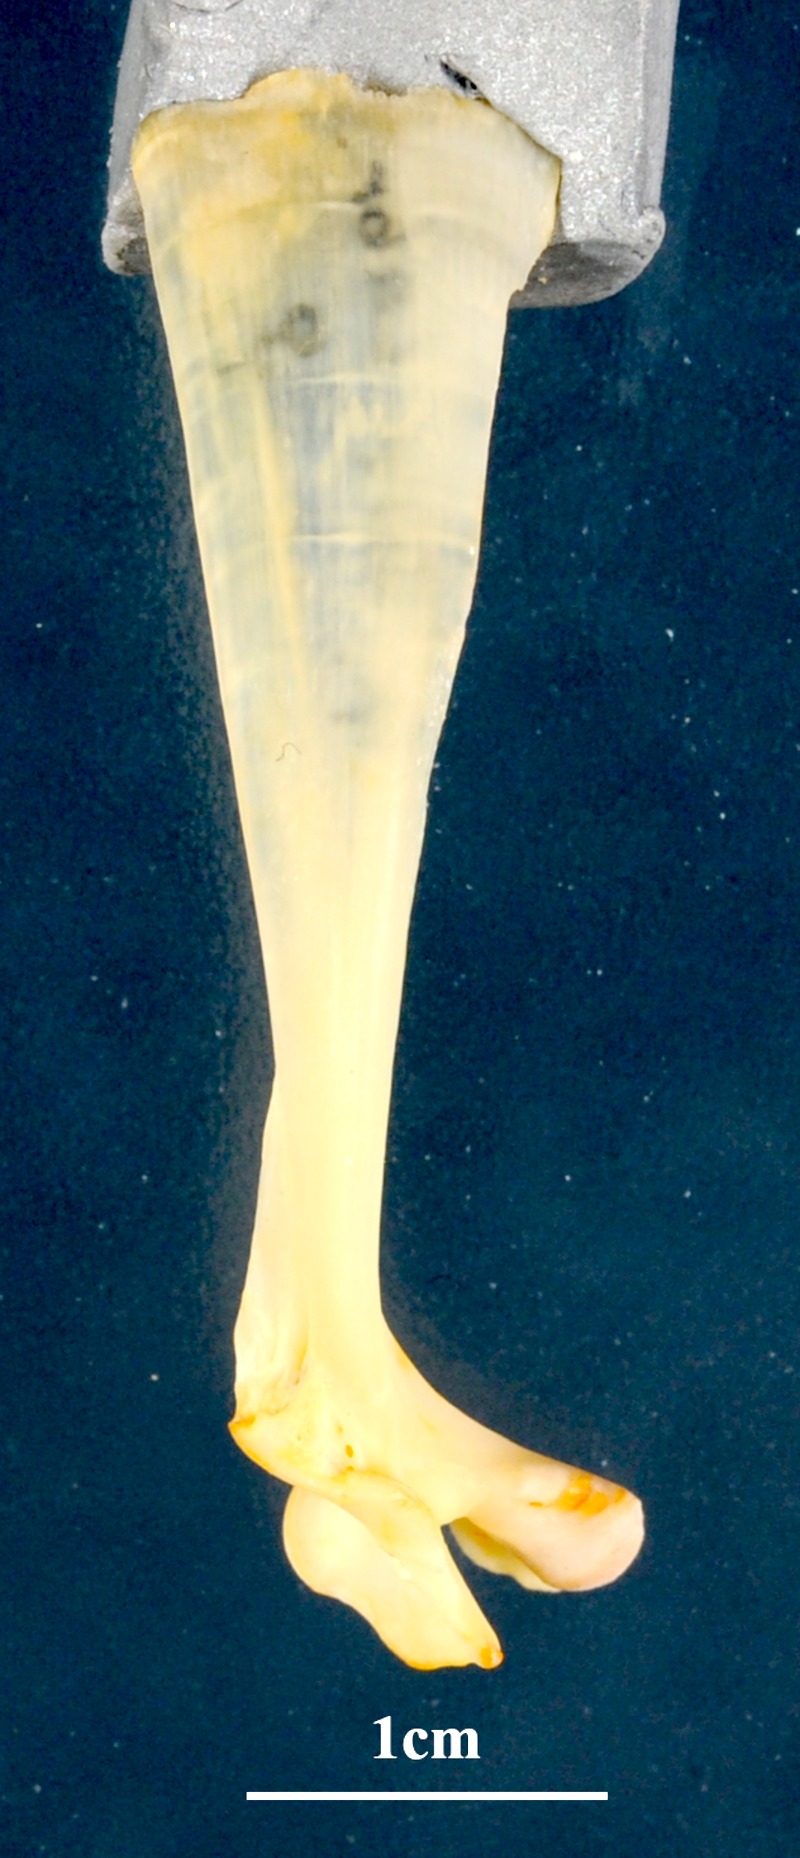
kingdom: Animalia
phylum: Chordata
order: Perciformes
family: Moronidae
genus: Dicentrarchus
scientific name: Dicentrarchus labrax
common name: European seabass
